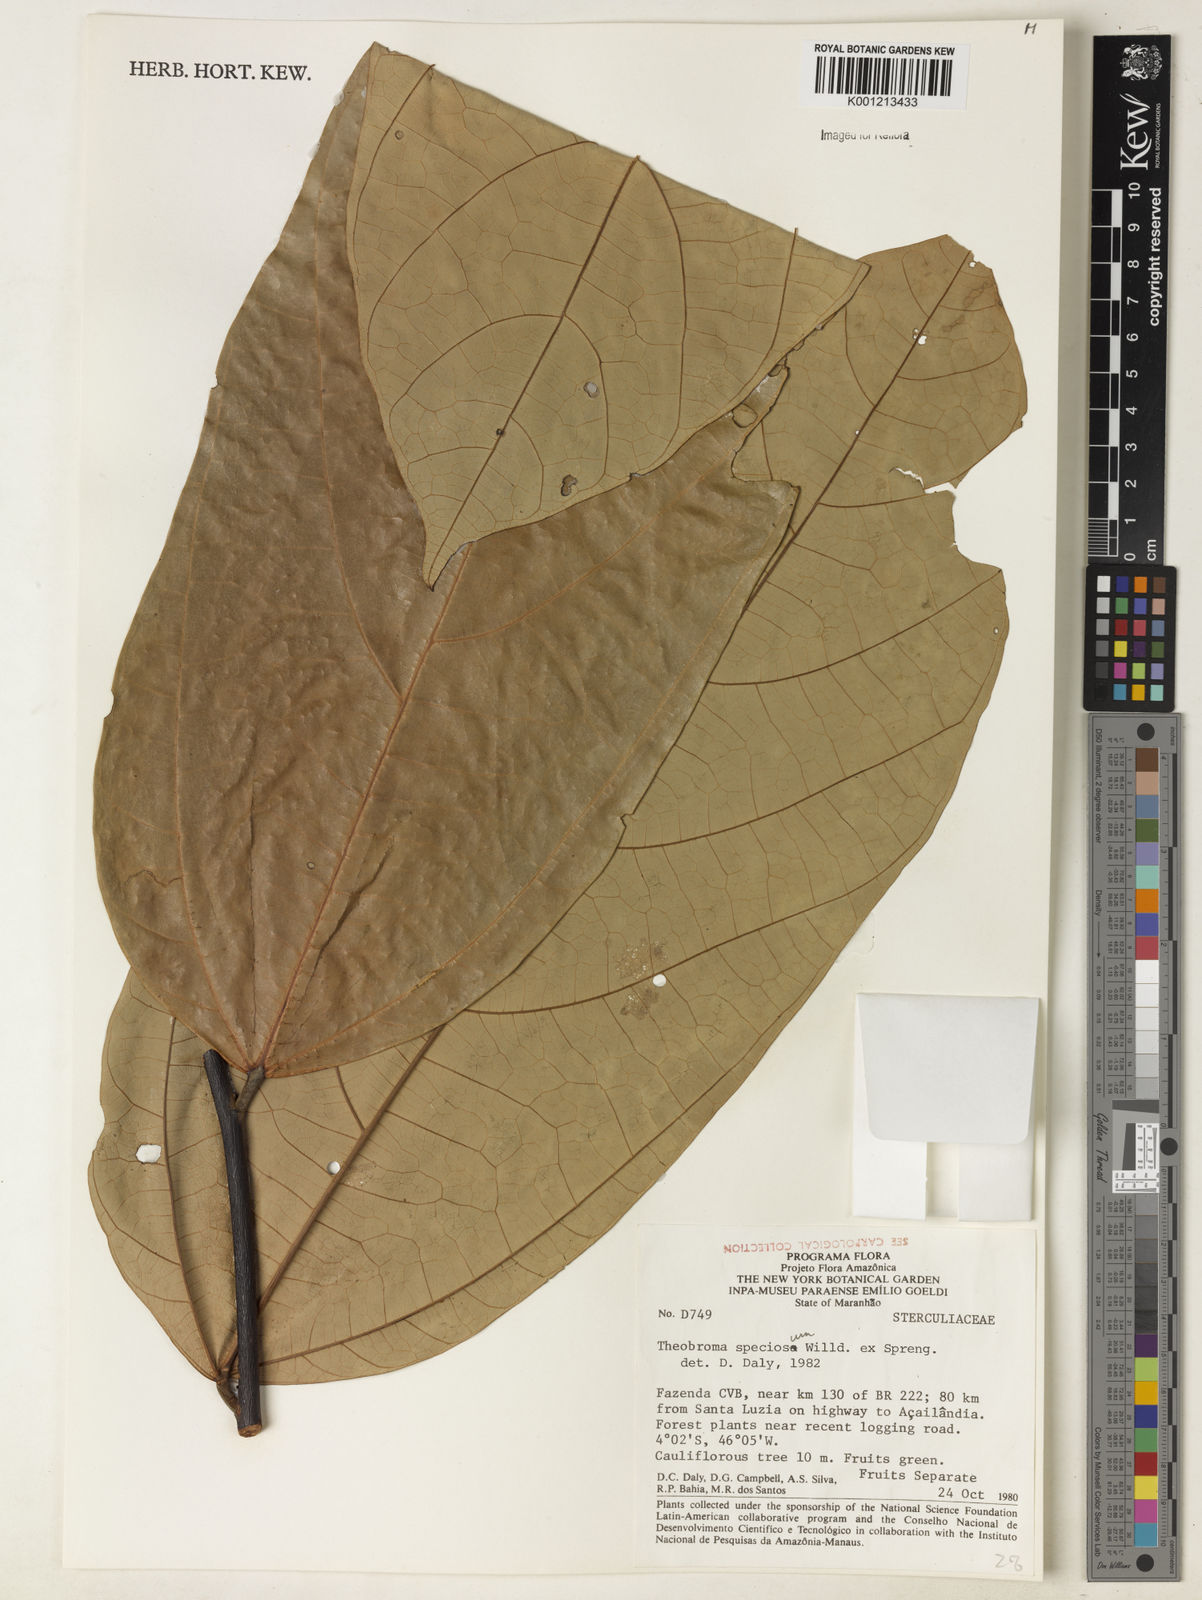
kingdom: Plantae
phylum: Tracheophyta
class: Magnoliopsida
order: Malvales
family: Malvaceae
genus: Theobroma
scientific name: Theobroma speciosum
